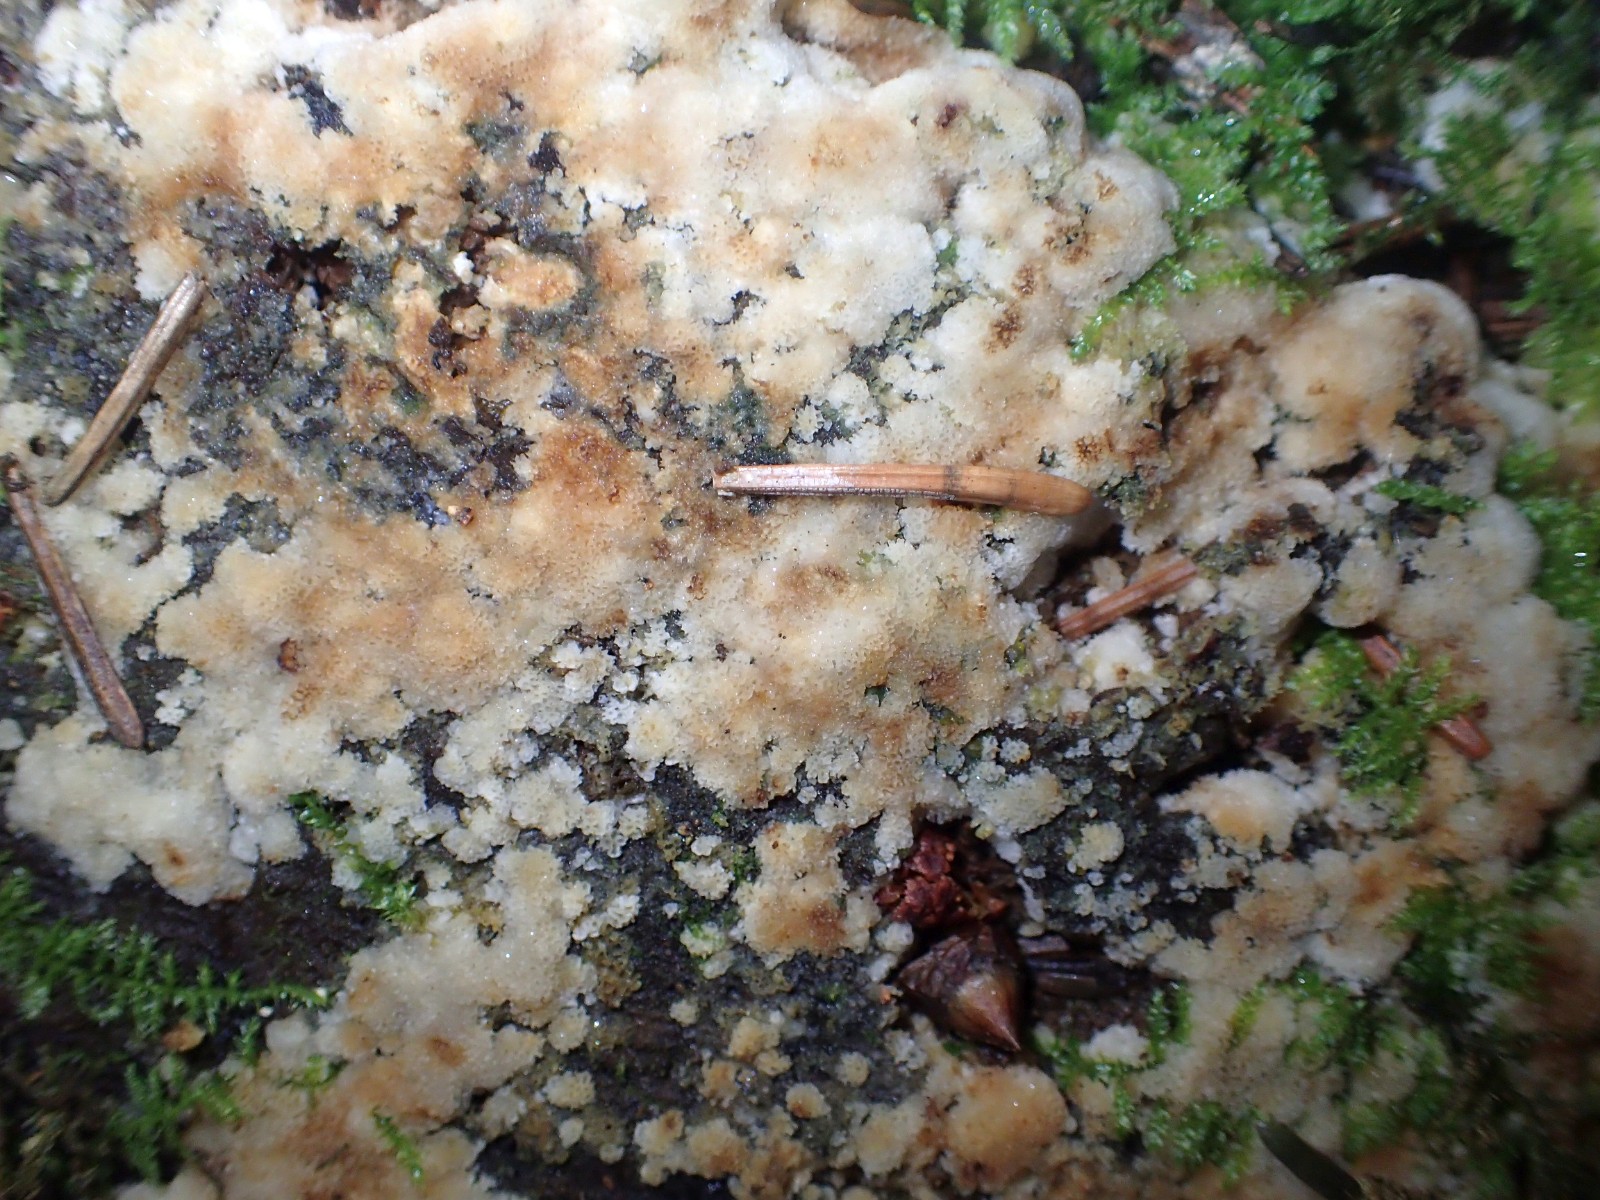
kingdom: Fungi
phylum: Basidiomycota
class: Agaricomycetes
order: Polyporales
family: Meruliaceae
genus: Physisporinus
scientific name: Physisporinus
